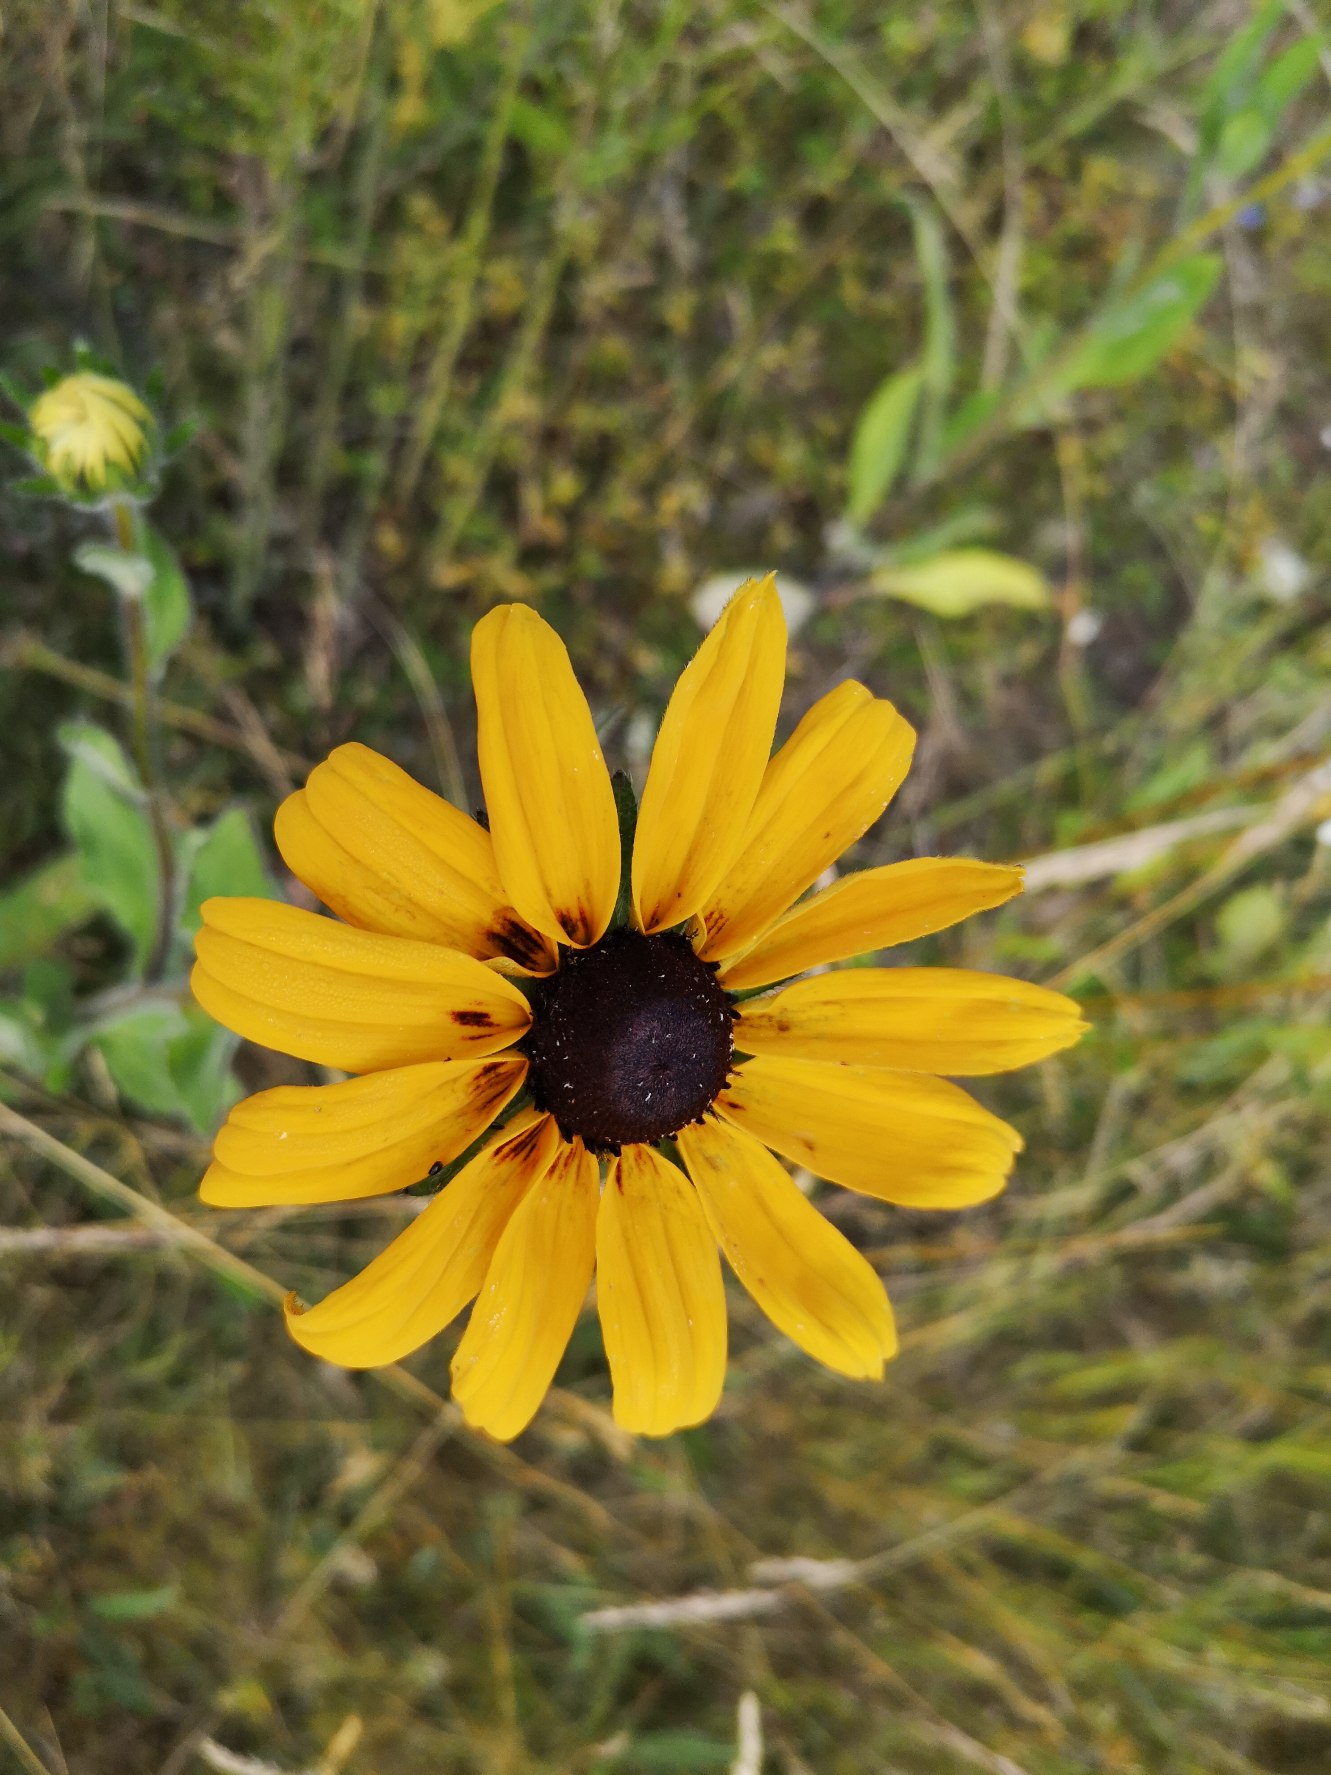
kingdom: Plantae
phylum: Tracheophyta
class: Magnoliopsida
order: Asterales
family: Asteraceae
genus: Rudbeckia
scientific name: Rudbeckia hirta
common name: Håret solhat
